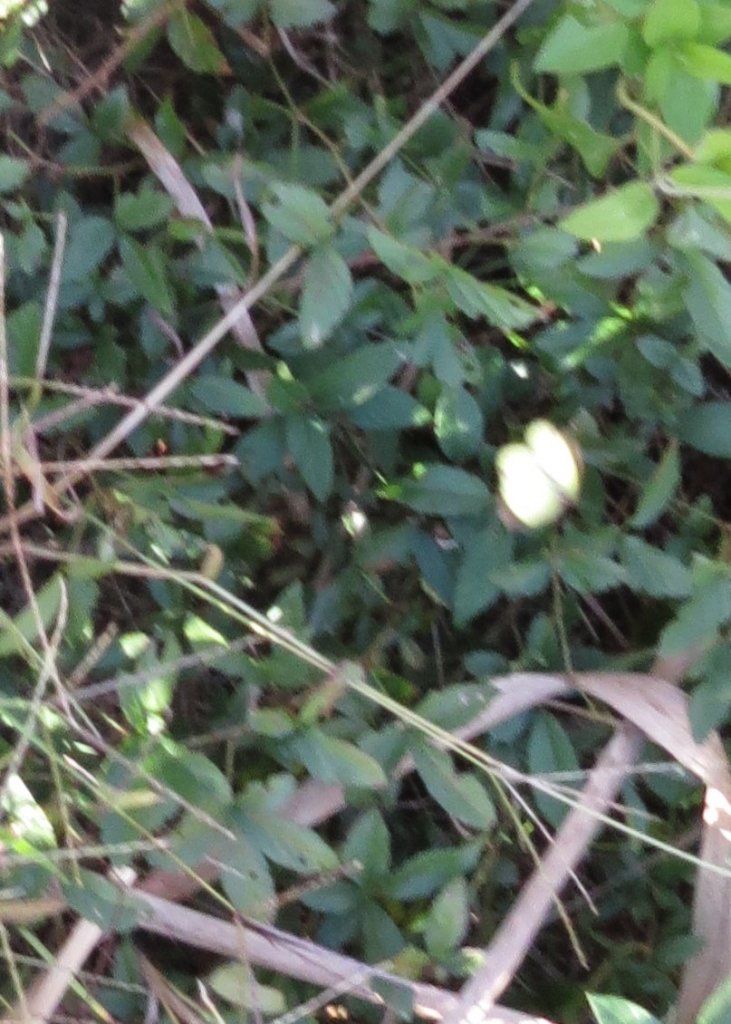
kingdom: Animalia
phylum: Arthropoda
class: Insecta
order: Lepidoptera
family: Pieridae
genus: Pyrisitia
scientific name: Pyrisitia lisa
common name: Little Yellow
